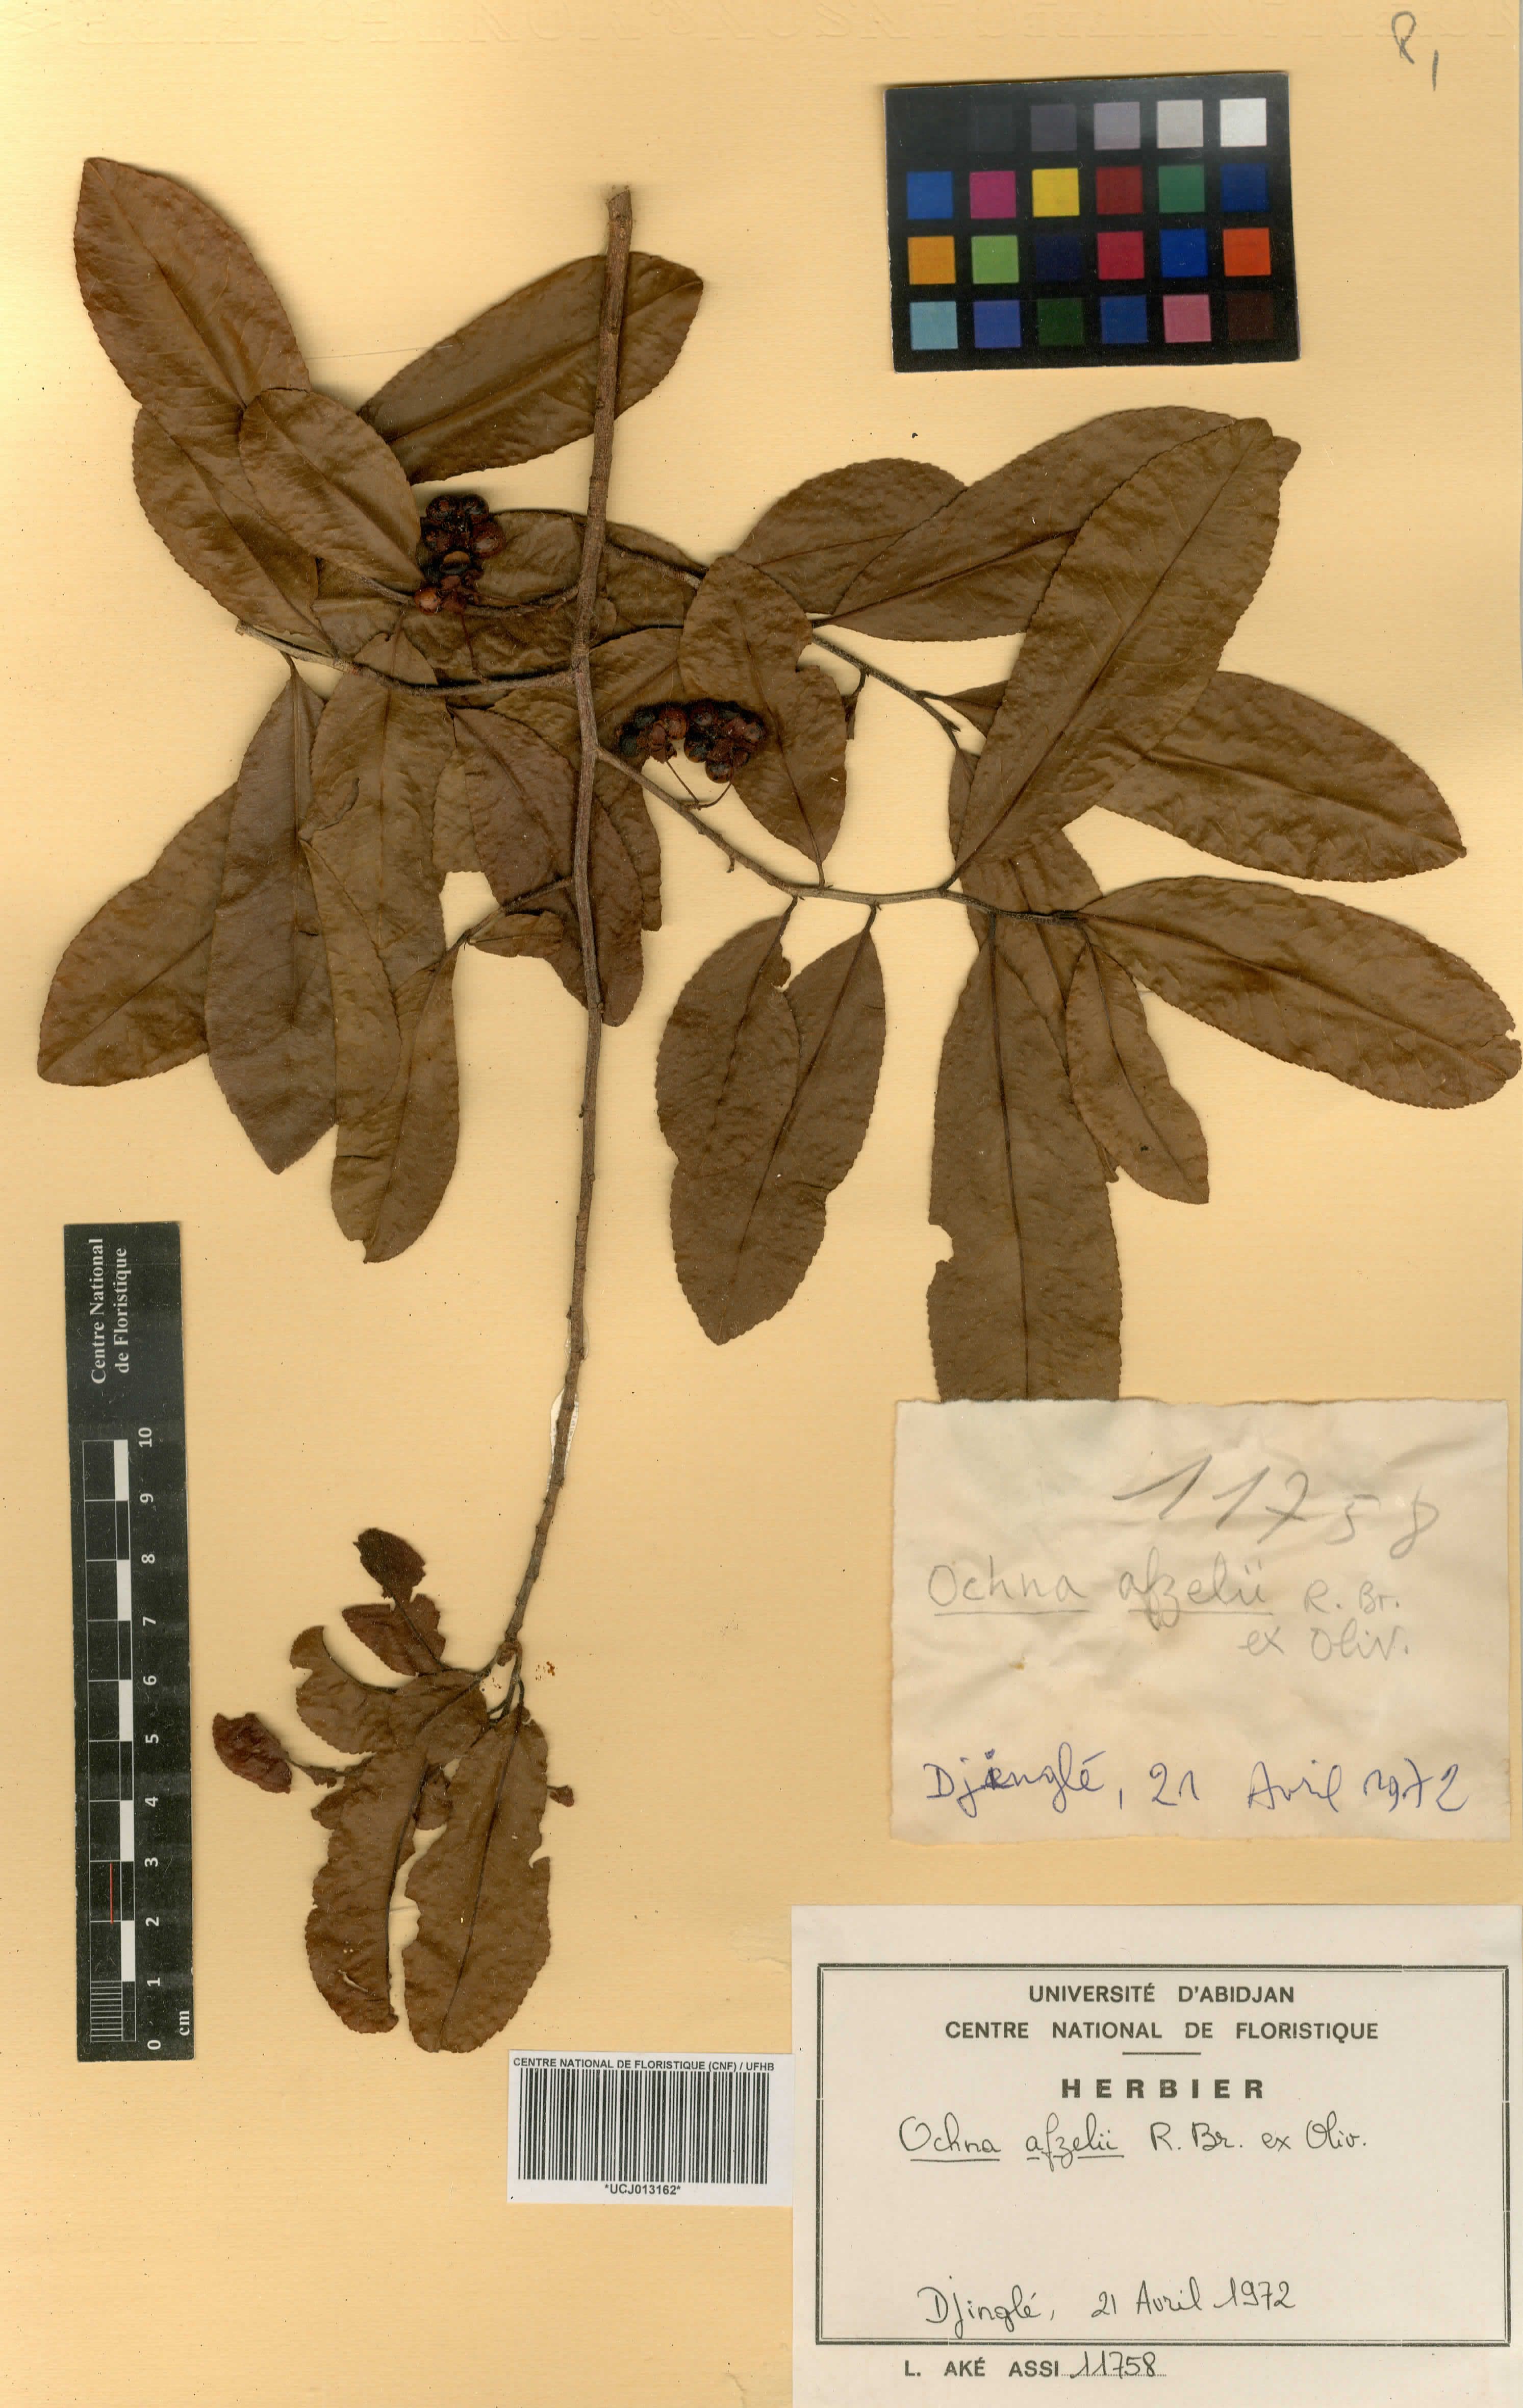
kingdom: Plantae
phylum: Tracheophyta
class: Magnoliopsida
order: Malpighiales
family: Ochnaceae
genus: Ochna
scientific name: Ochna afzelii
